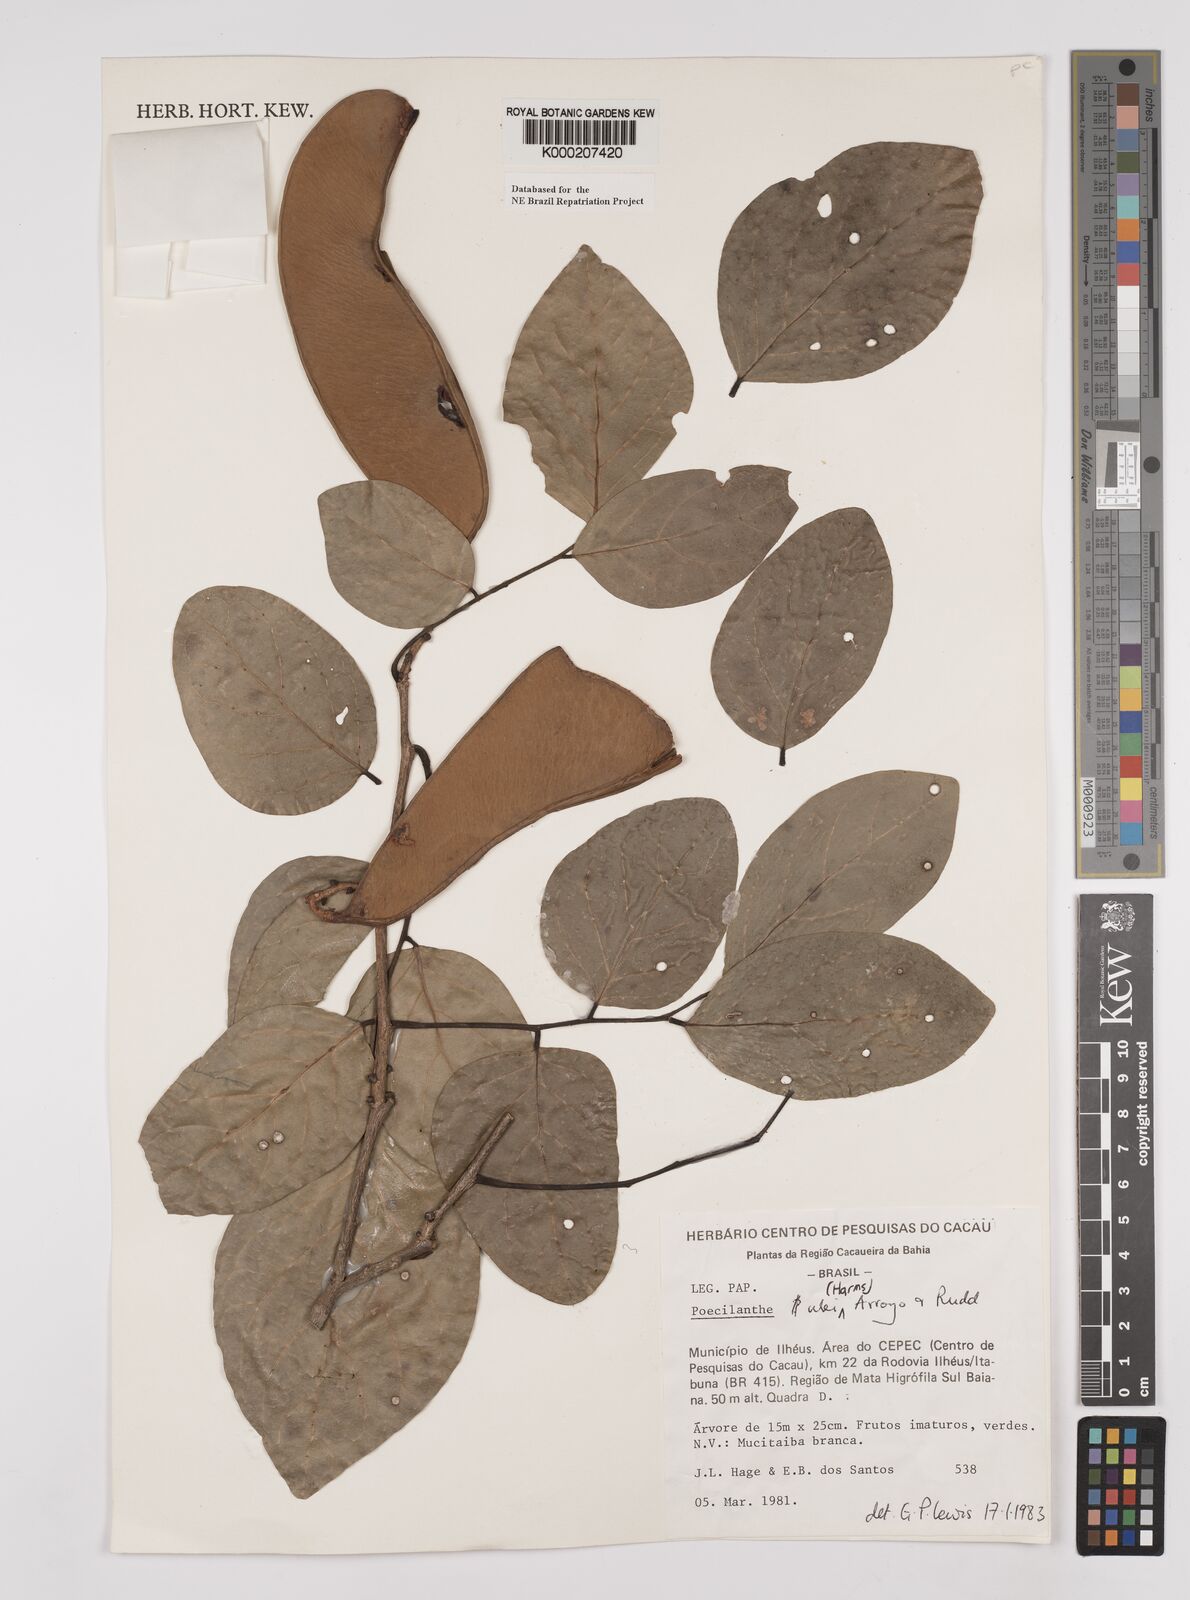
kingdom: Plantae
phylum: Tracheophyta
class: Magnoliopsida
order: Fabales
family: Fabaceae
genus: Poecilanthe
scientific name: Poecilanthe ulei
